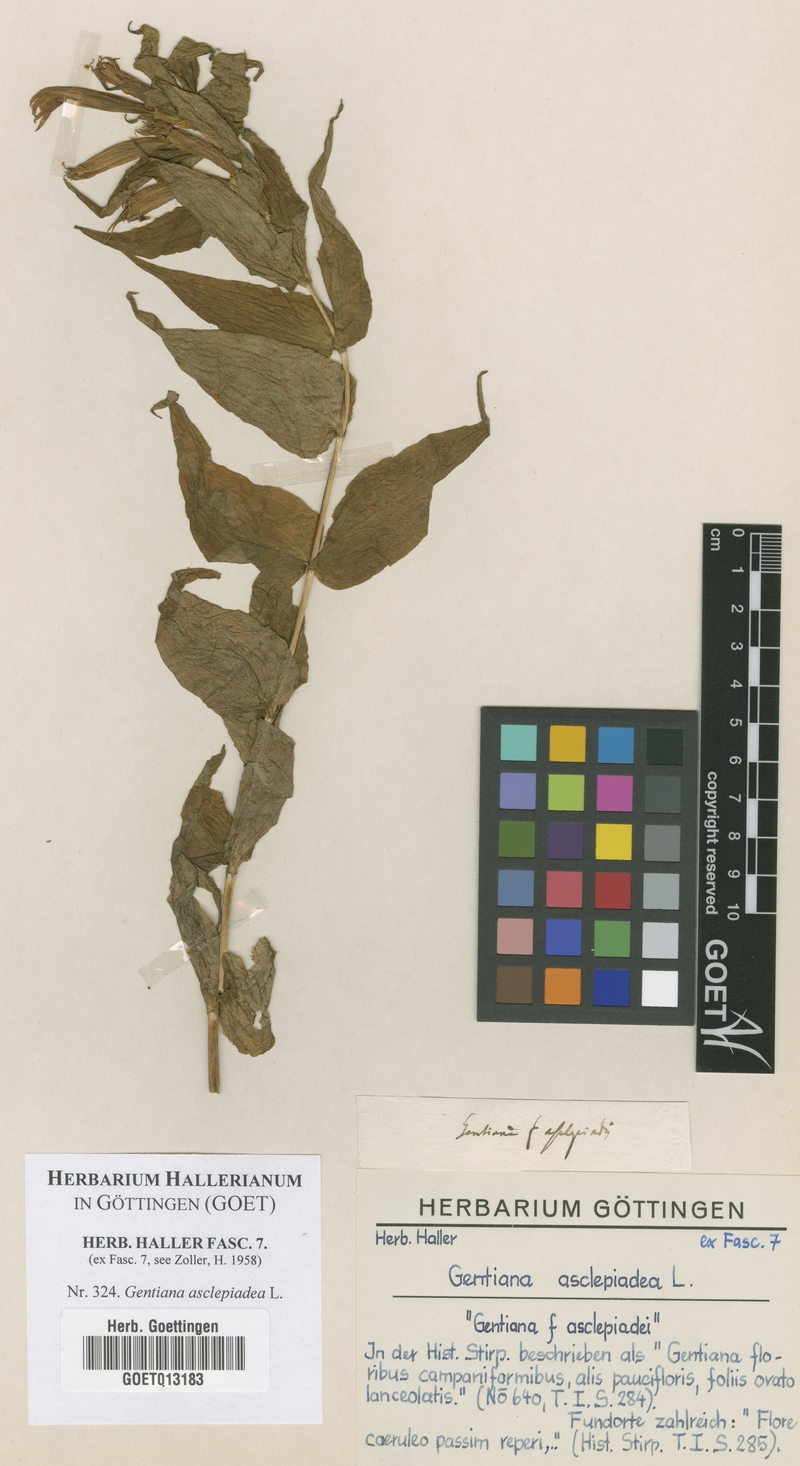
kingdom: Plantae
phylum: Tracheophyta
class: Magnoliopsida
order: Gentianales
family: Gentianaceae
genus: Gentiana
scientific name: Gentiana asclepiadea
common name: Willow gentian
